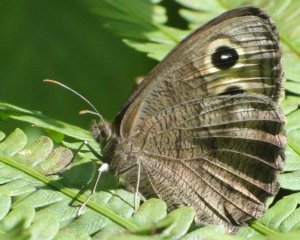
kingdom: Animalia
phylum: Arthropoda
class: Insecta
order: Lepidoptera
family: Nymphalidae
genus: Cercyonis
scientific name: Cercyonis pegala
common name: Common Wood-Nymph
